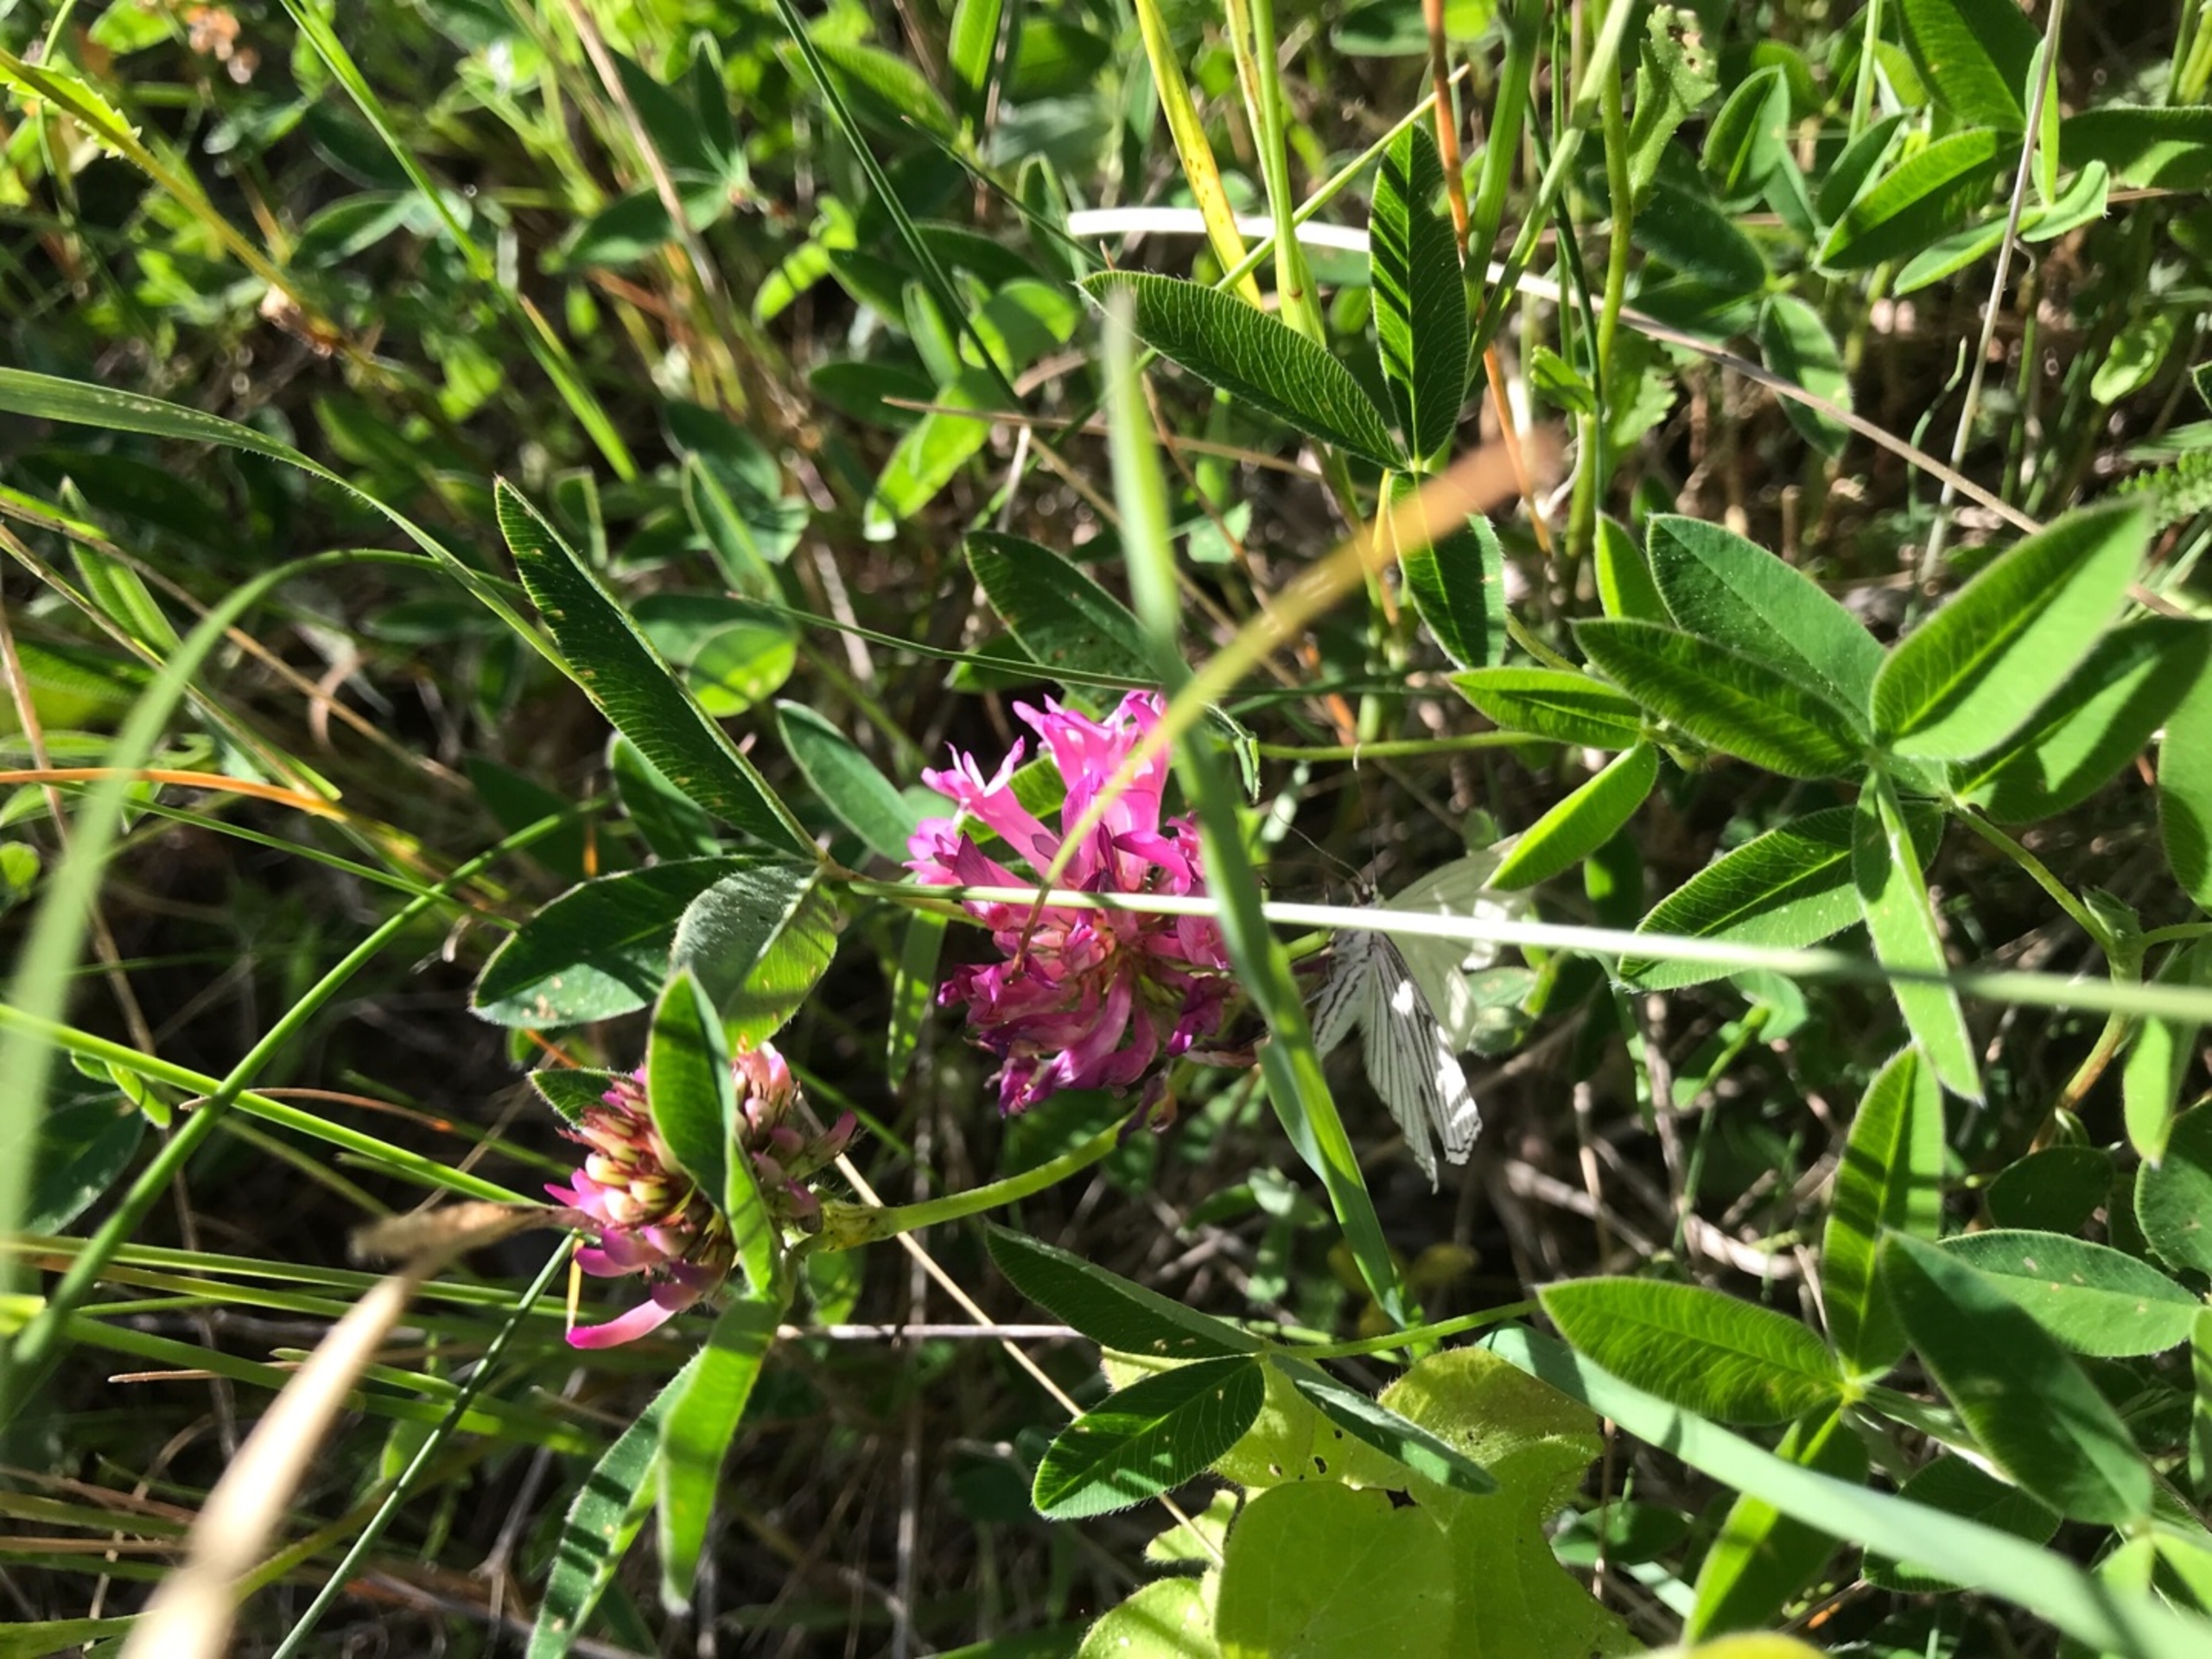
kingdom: Animalia
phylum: Arthropoda
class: Insecta
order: Lepidoptera
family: Geometridae
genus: Siona
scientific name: Siona lineata
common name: Hvidvingemåler
